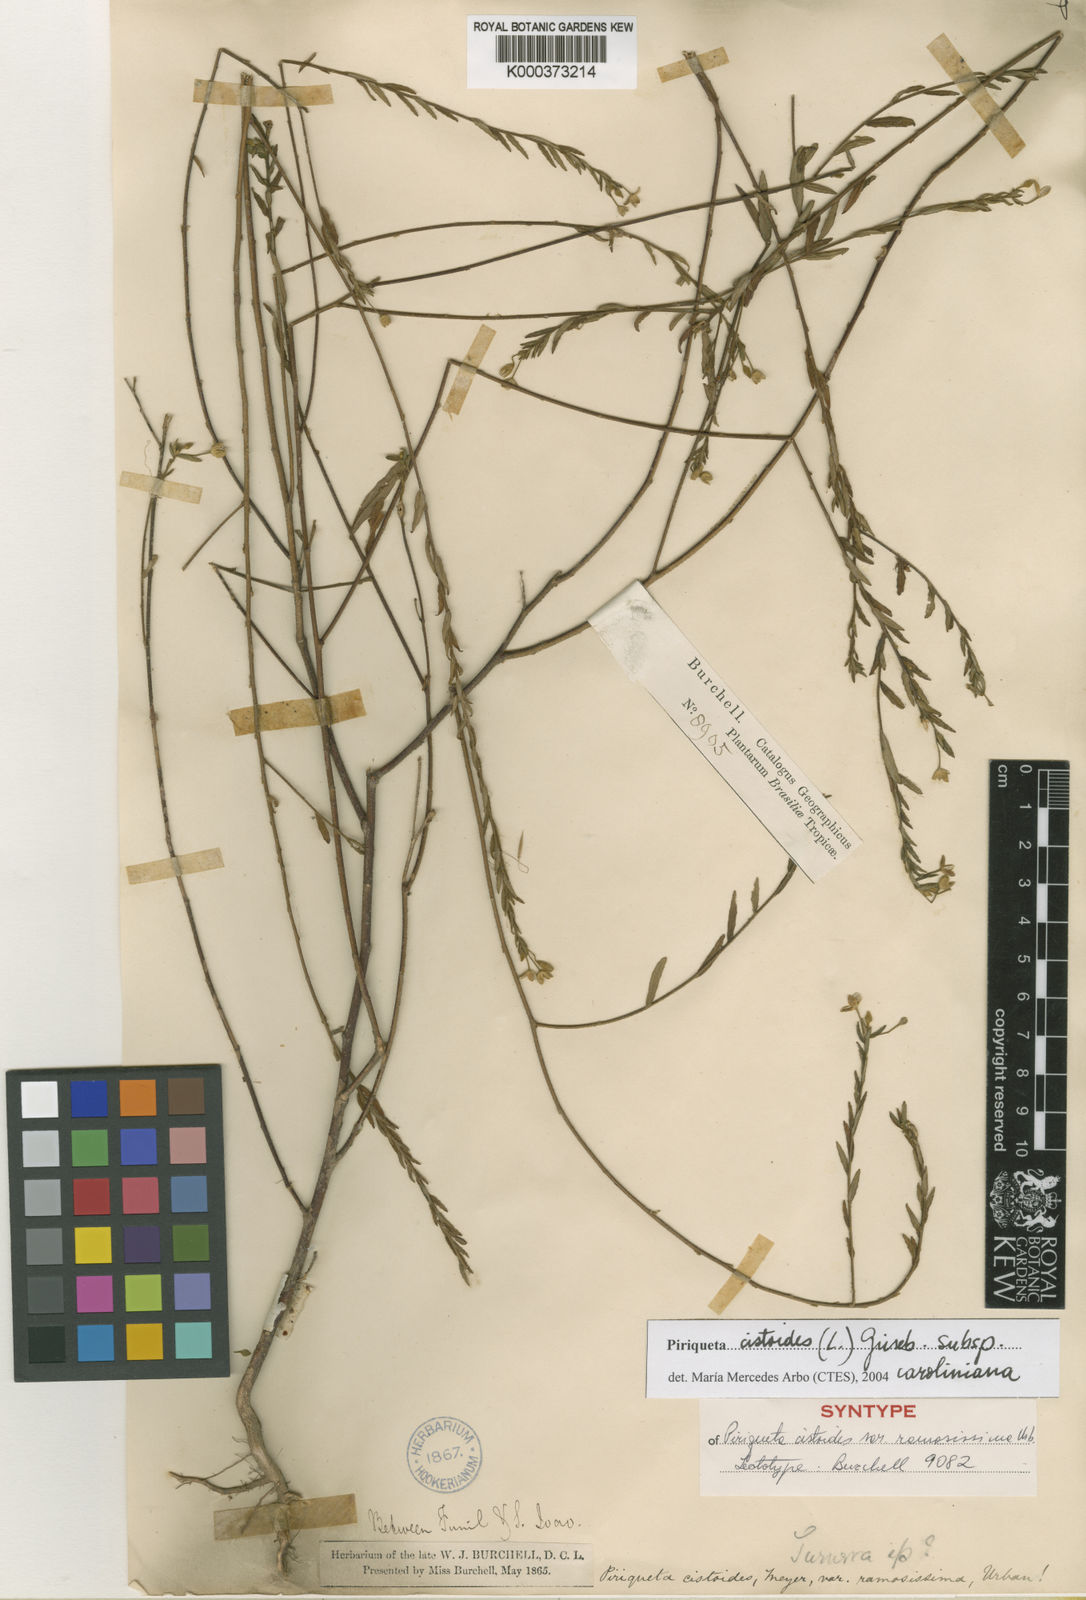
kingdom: Plantae
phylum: Tracheophyta
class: Magnoliopsida
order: Malpighiales
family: Turneraceae
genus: Piriqueta
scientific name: Piriqueta cistoides
